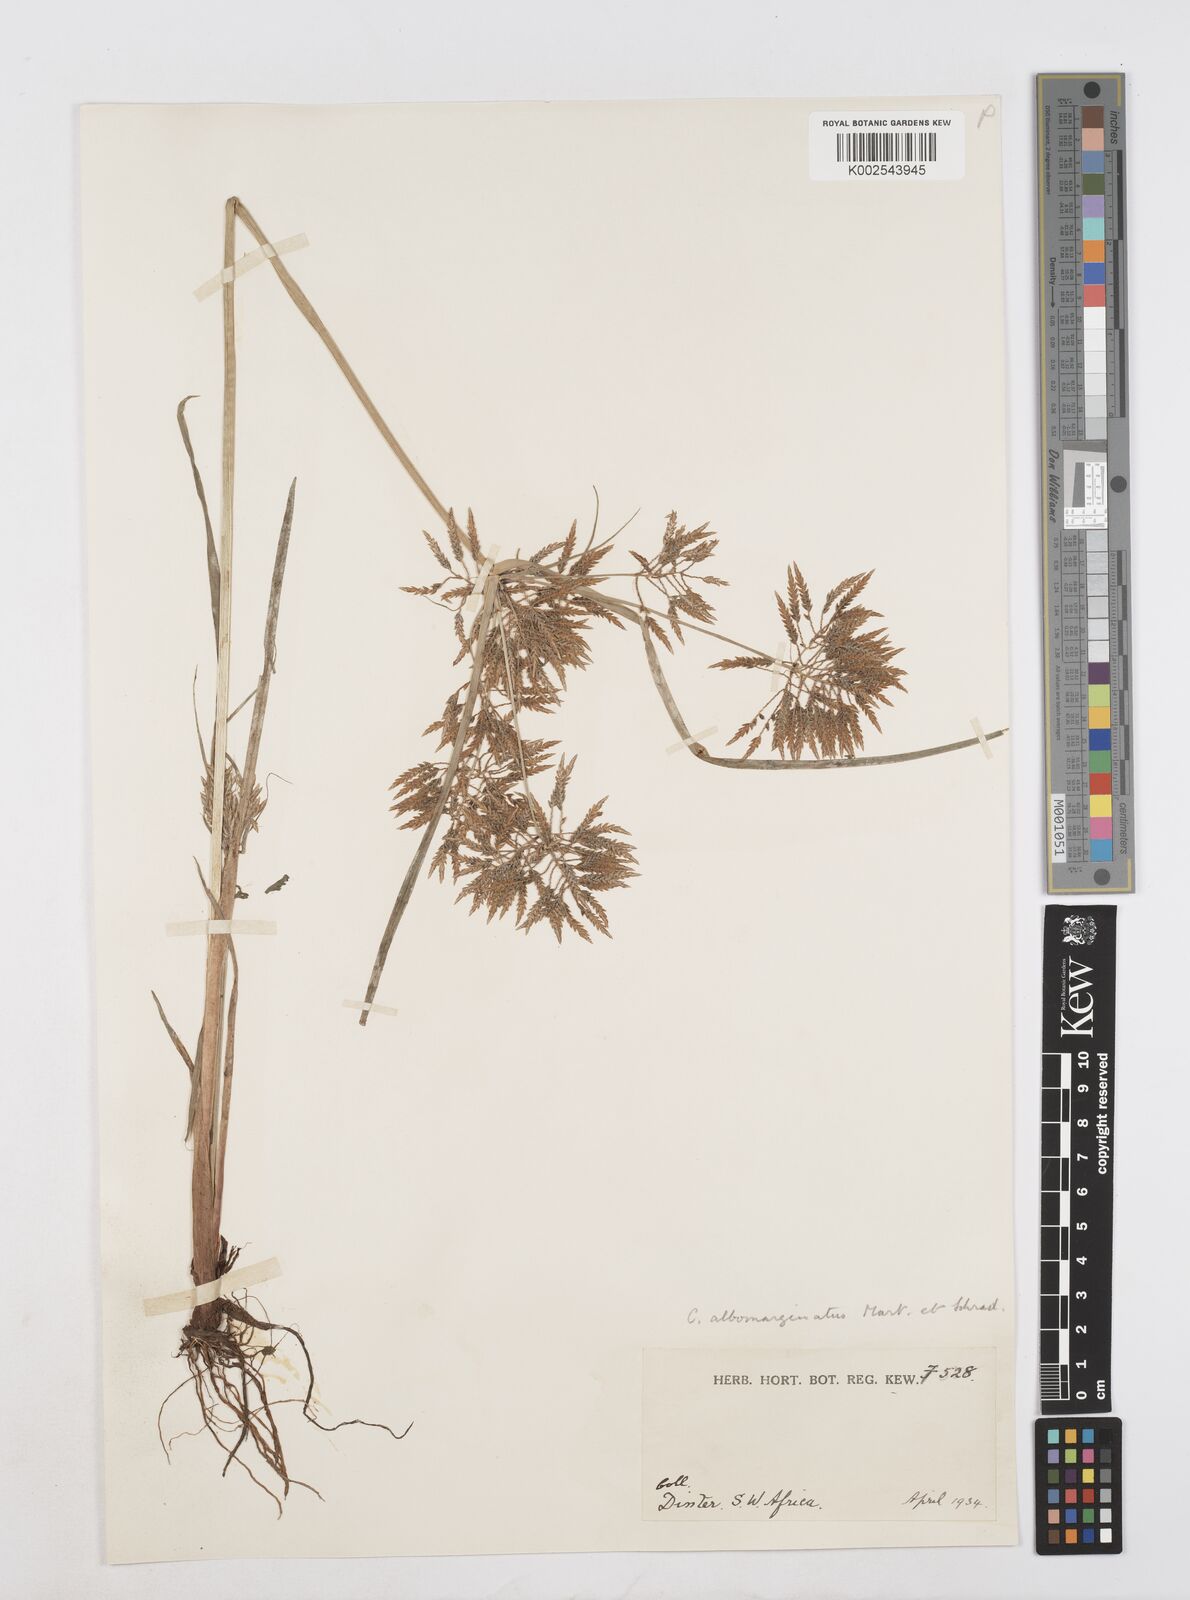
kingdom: Plantae
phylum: Tracheophyta
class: Liliopsida
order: Poales
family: Cyperaceae
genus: Cyperus
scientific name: Cyperus macrostachyos
